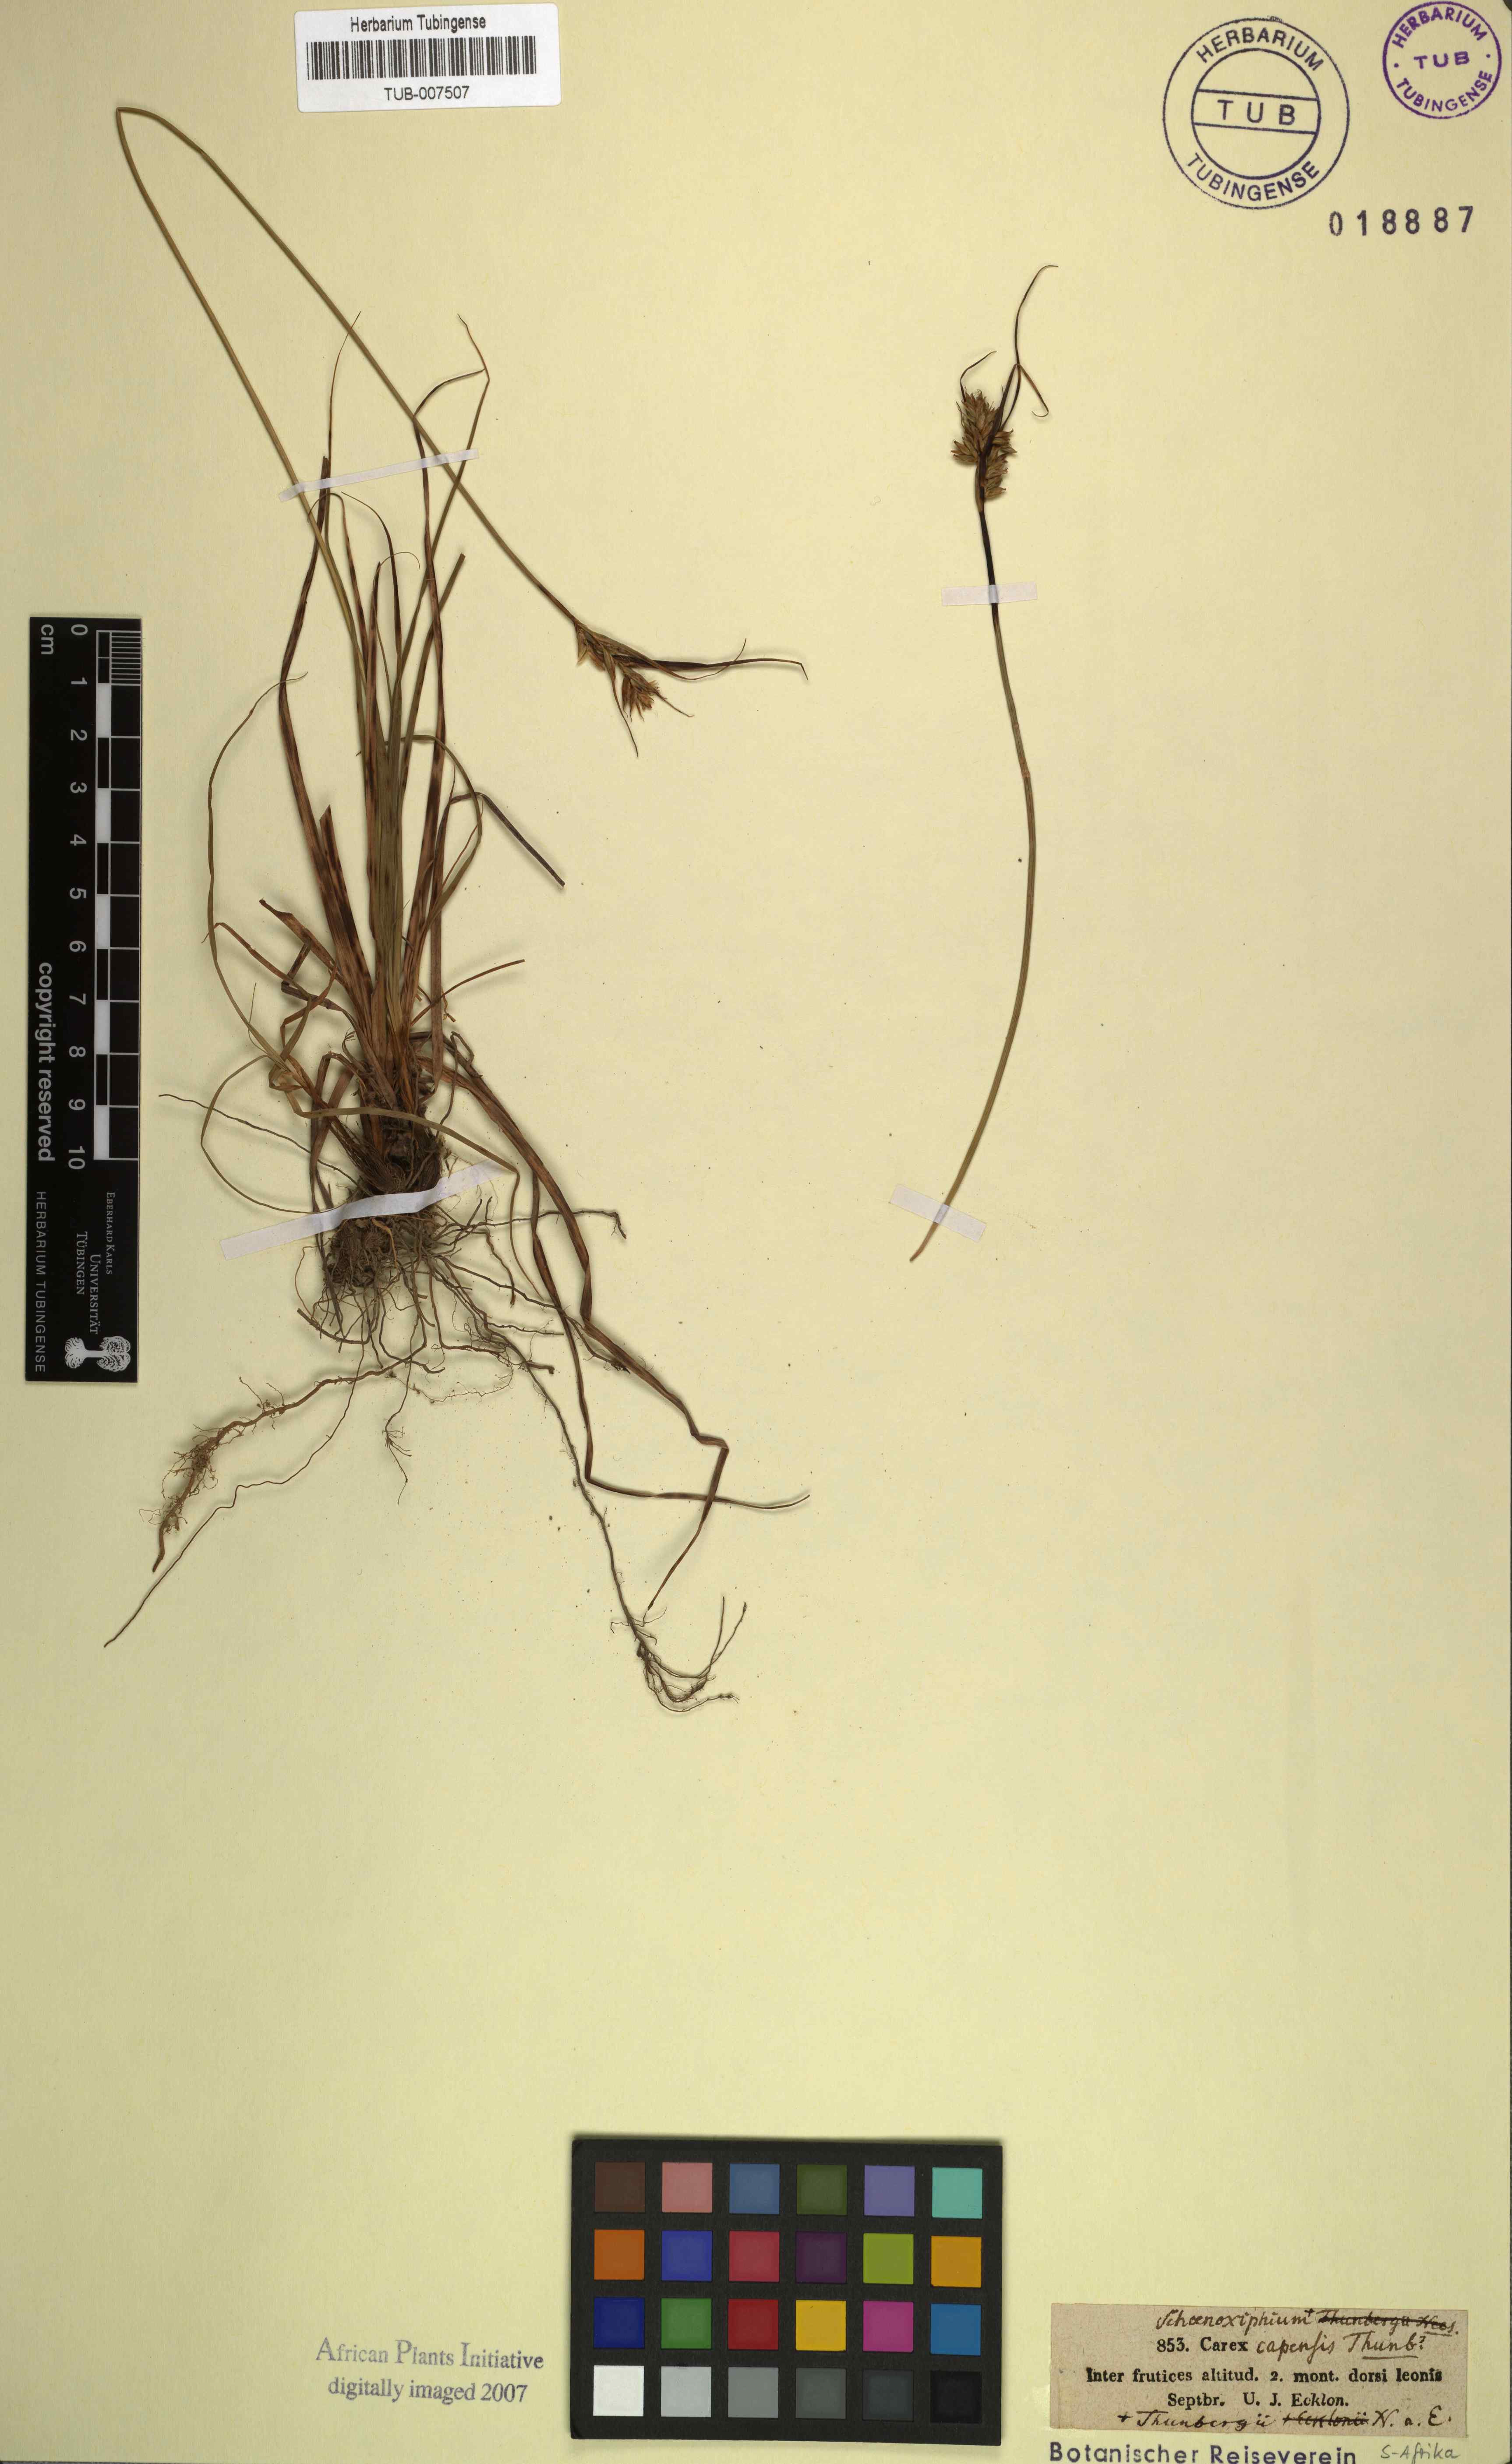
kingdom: Plantae
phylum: Tracheophyta
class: Liliopsida
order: Poales
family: Cyperaceae
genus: Carex
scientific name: Carex capensis
